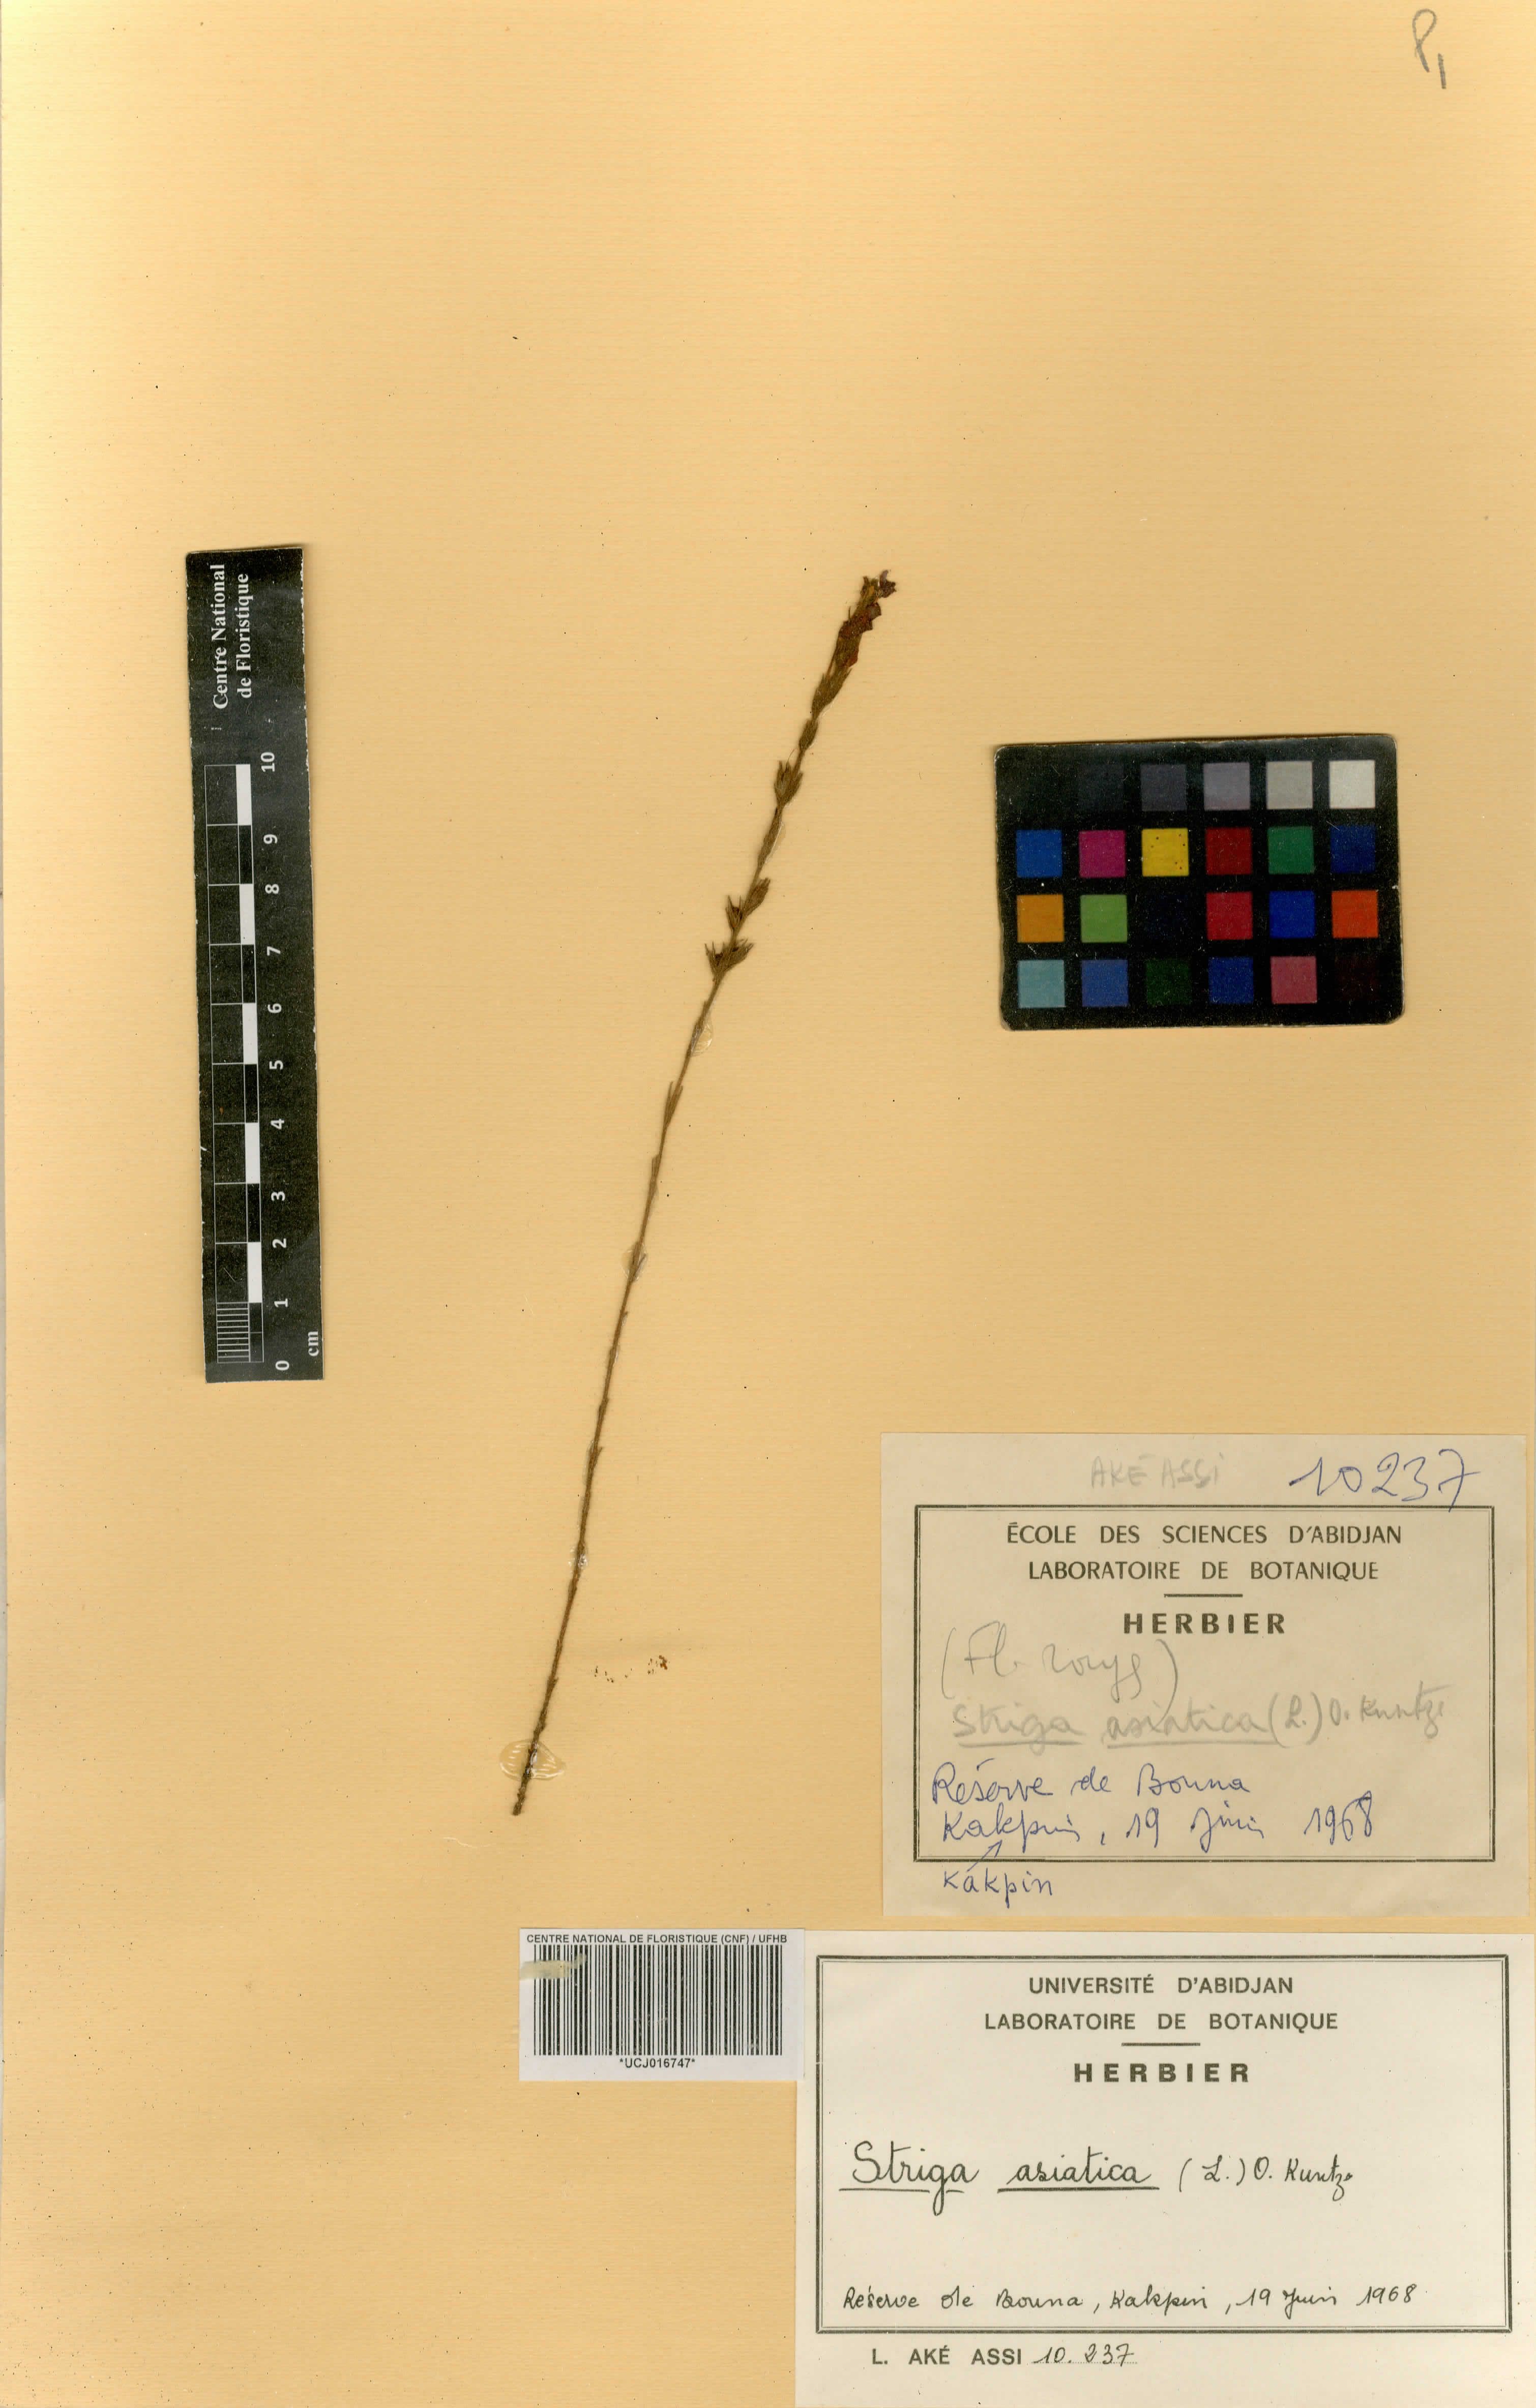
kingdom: Plantae
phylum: Tracheophyta
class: Magnoliopsida
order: Lamiales
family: Scrophulariaceae
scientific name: Scrophulariaceae
